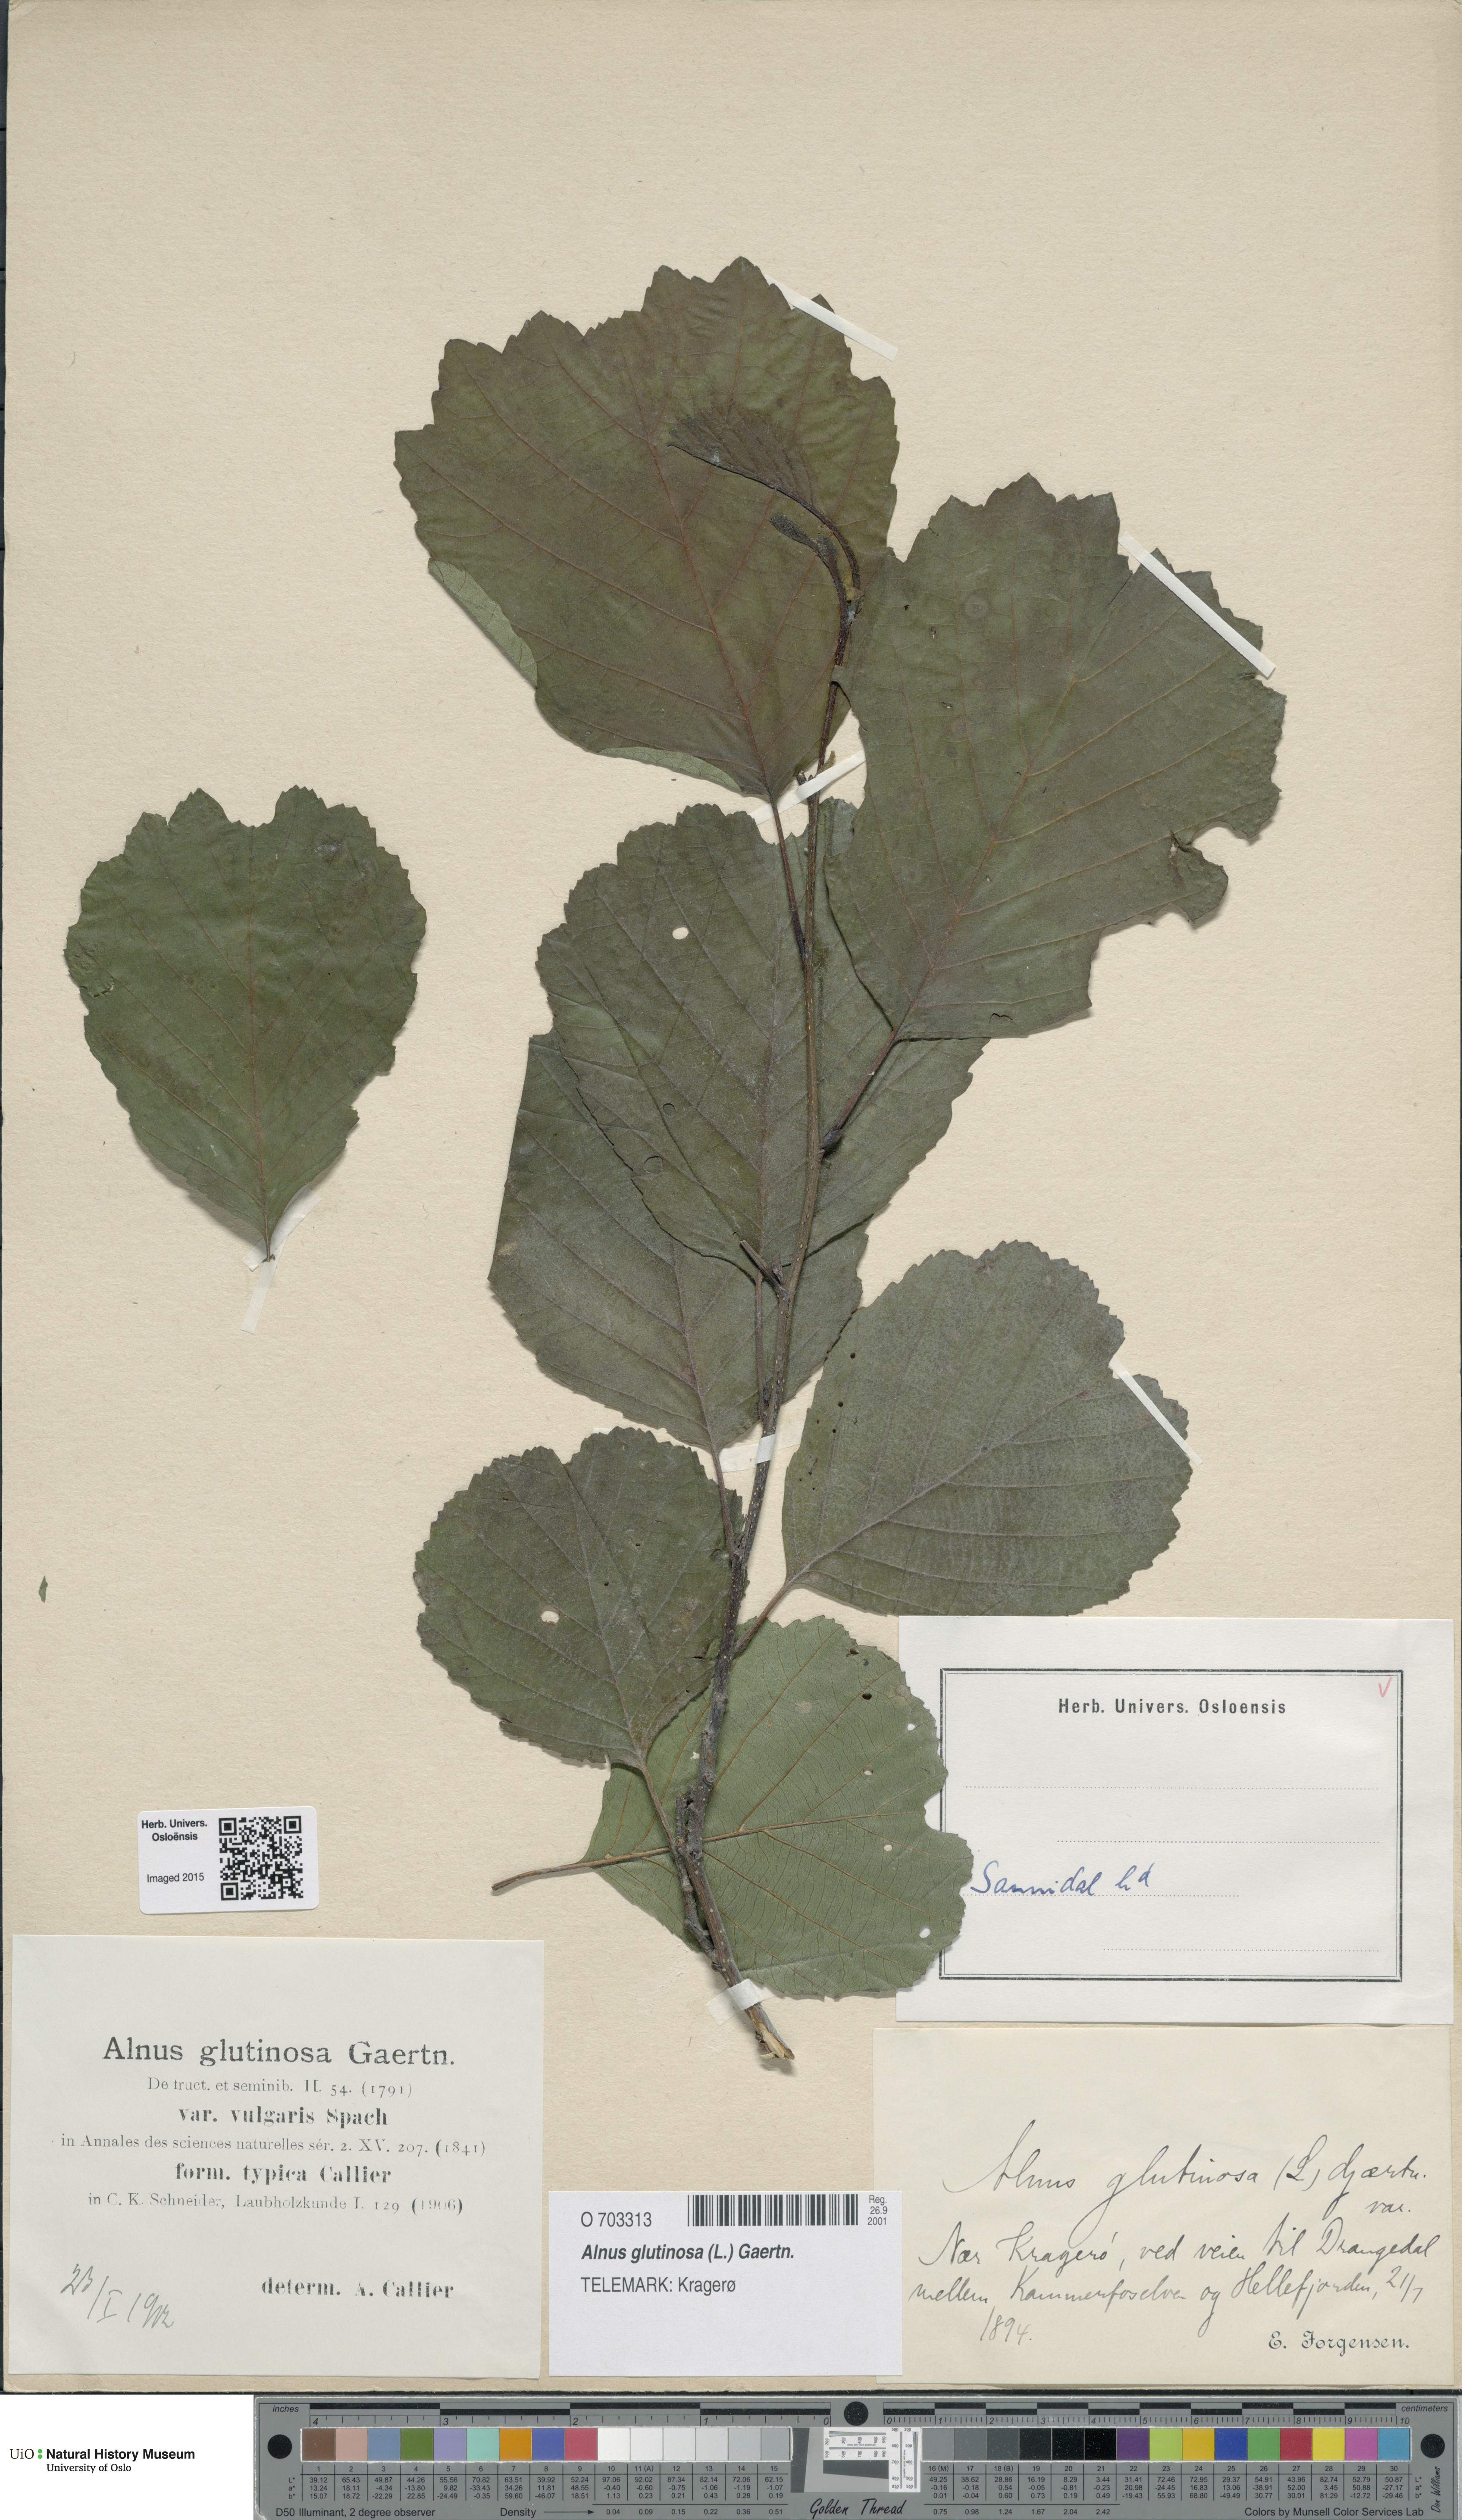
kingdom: Plantae
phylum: Tracheophyta
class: Magnoliopsida
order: Fagales
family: Betulaceae
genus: Alnus
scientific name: Alnus glutinosa
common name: Black alder
